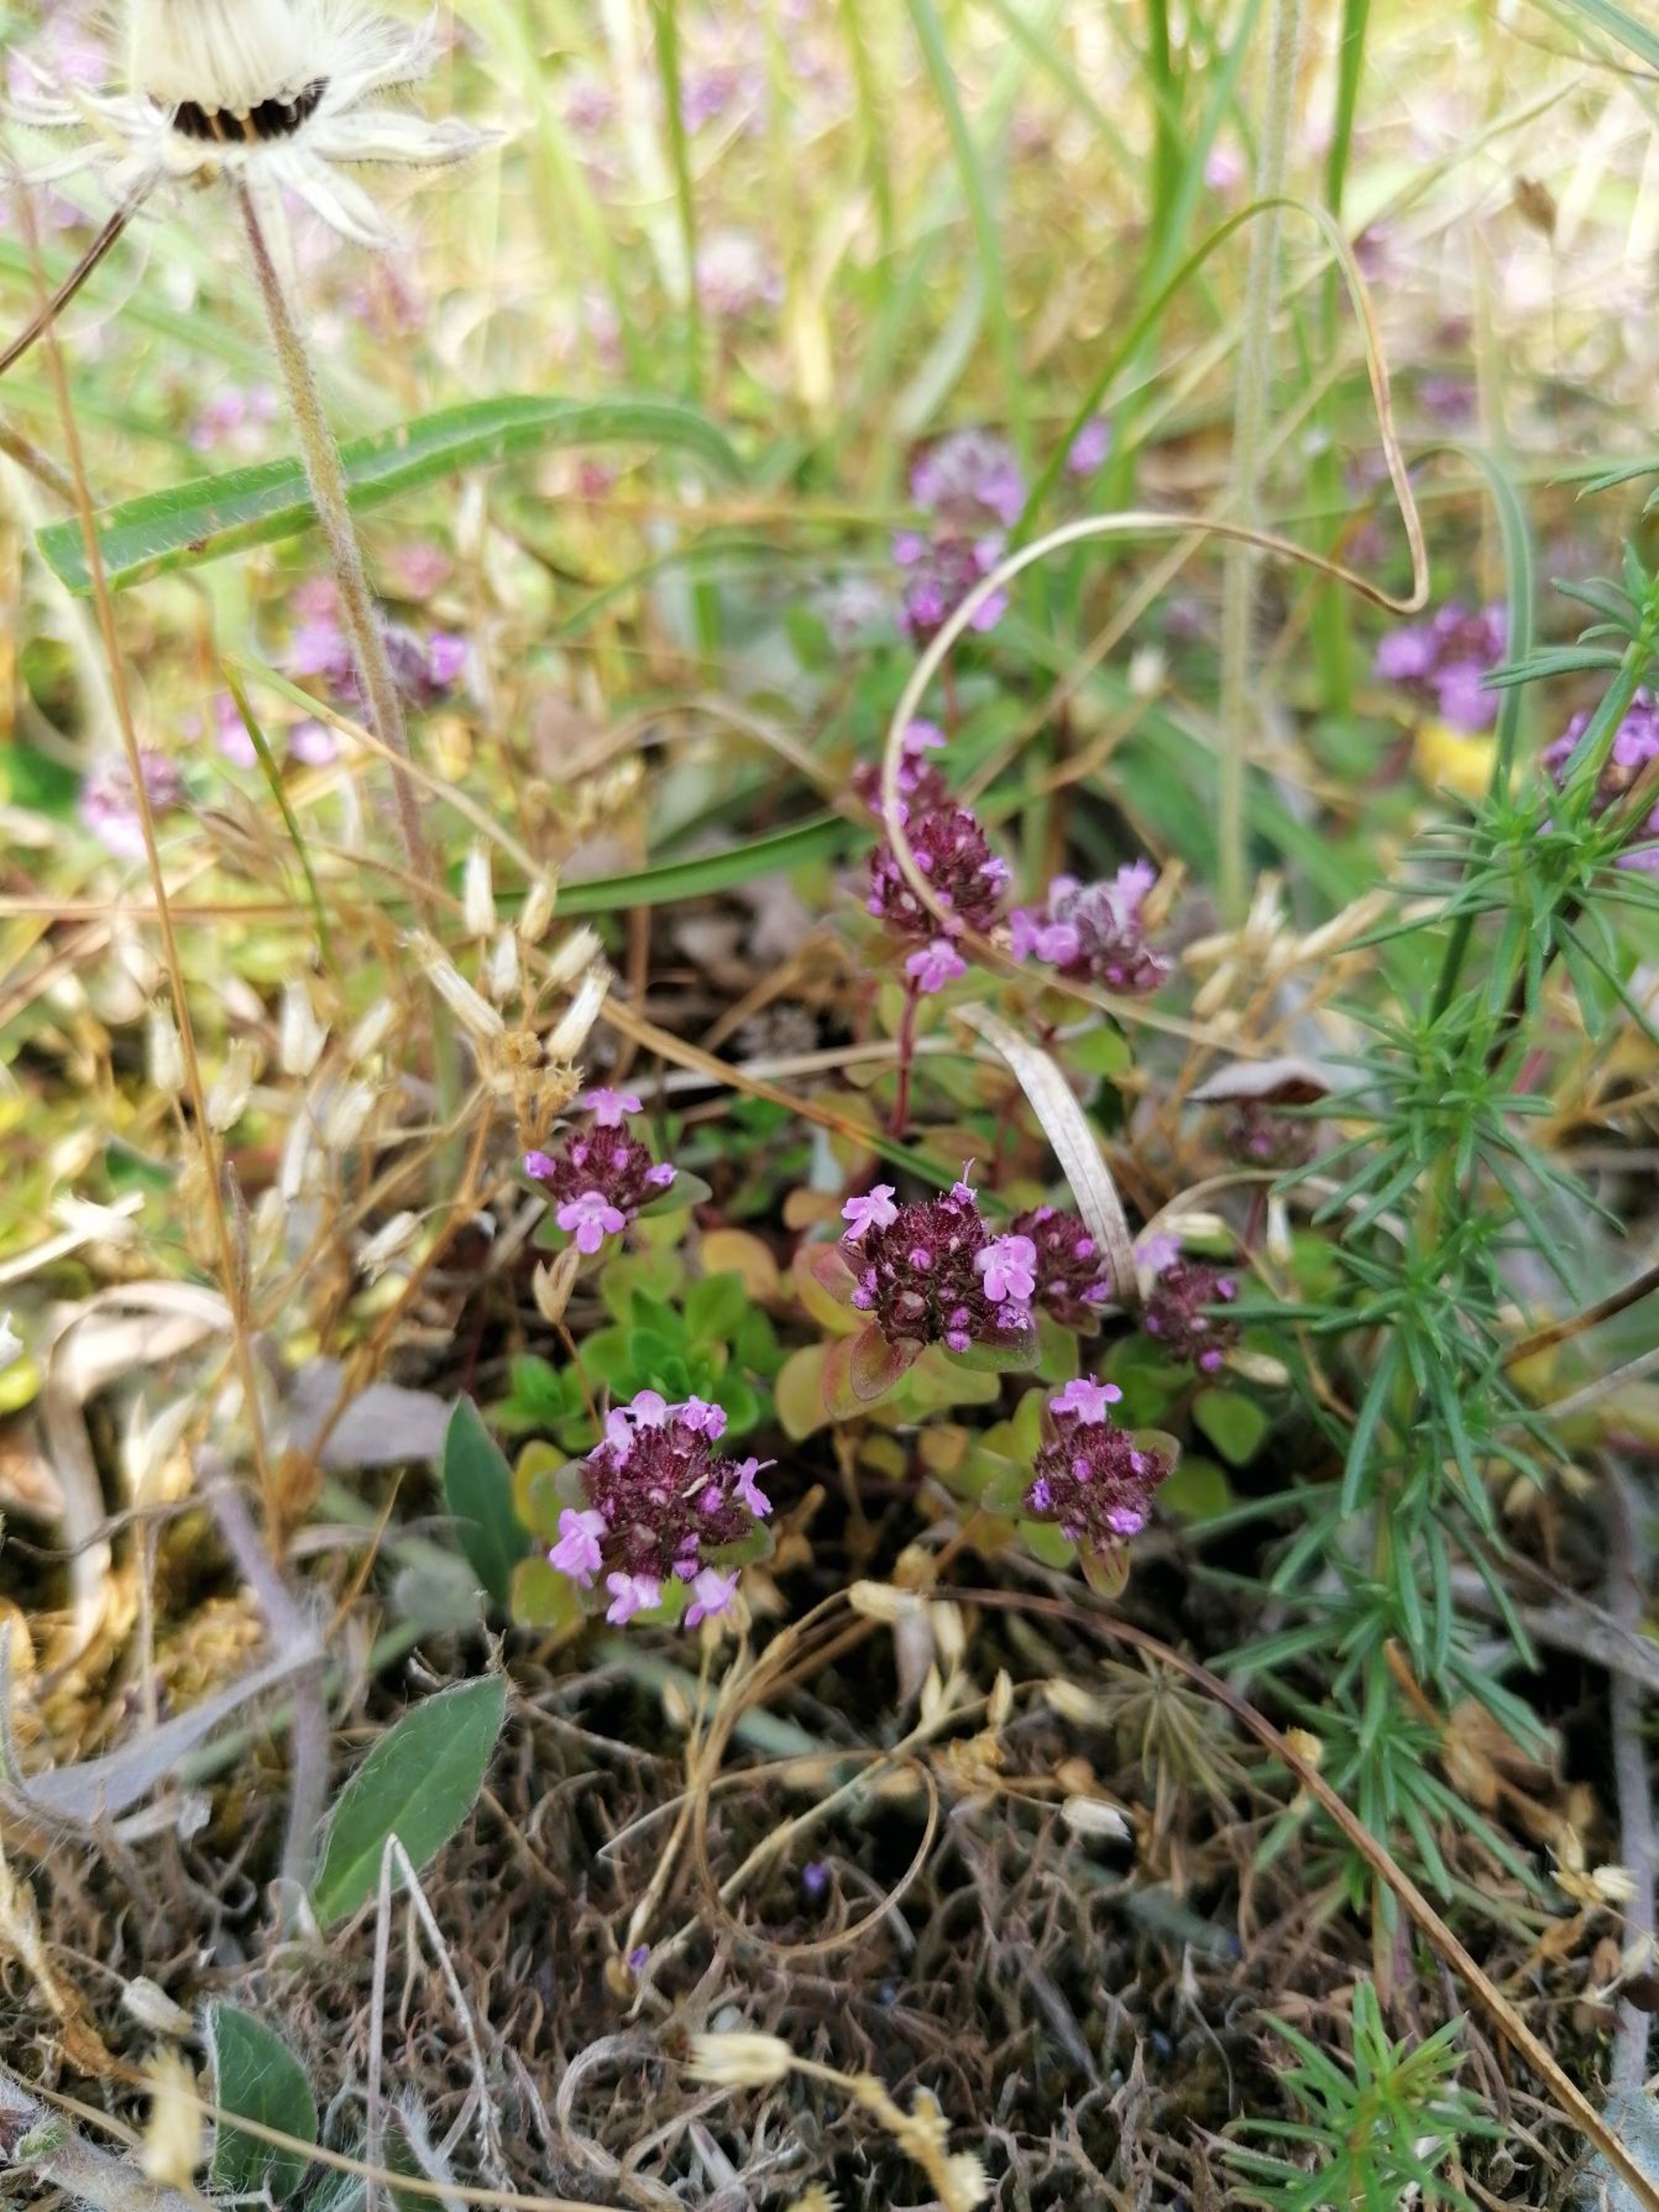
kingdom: Plantae
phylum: Tracheophyta
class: Magnoliopsida
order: Lamiales
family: Lamiaceae
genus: Thymus
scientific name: Thymus pulegioides
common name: Bredbladet timian
